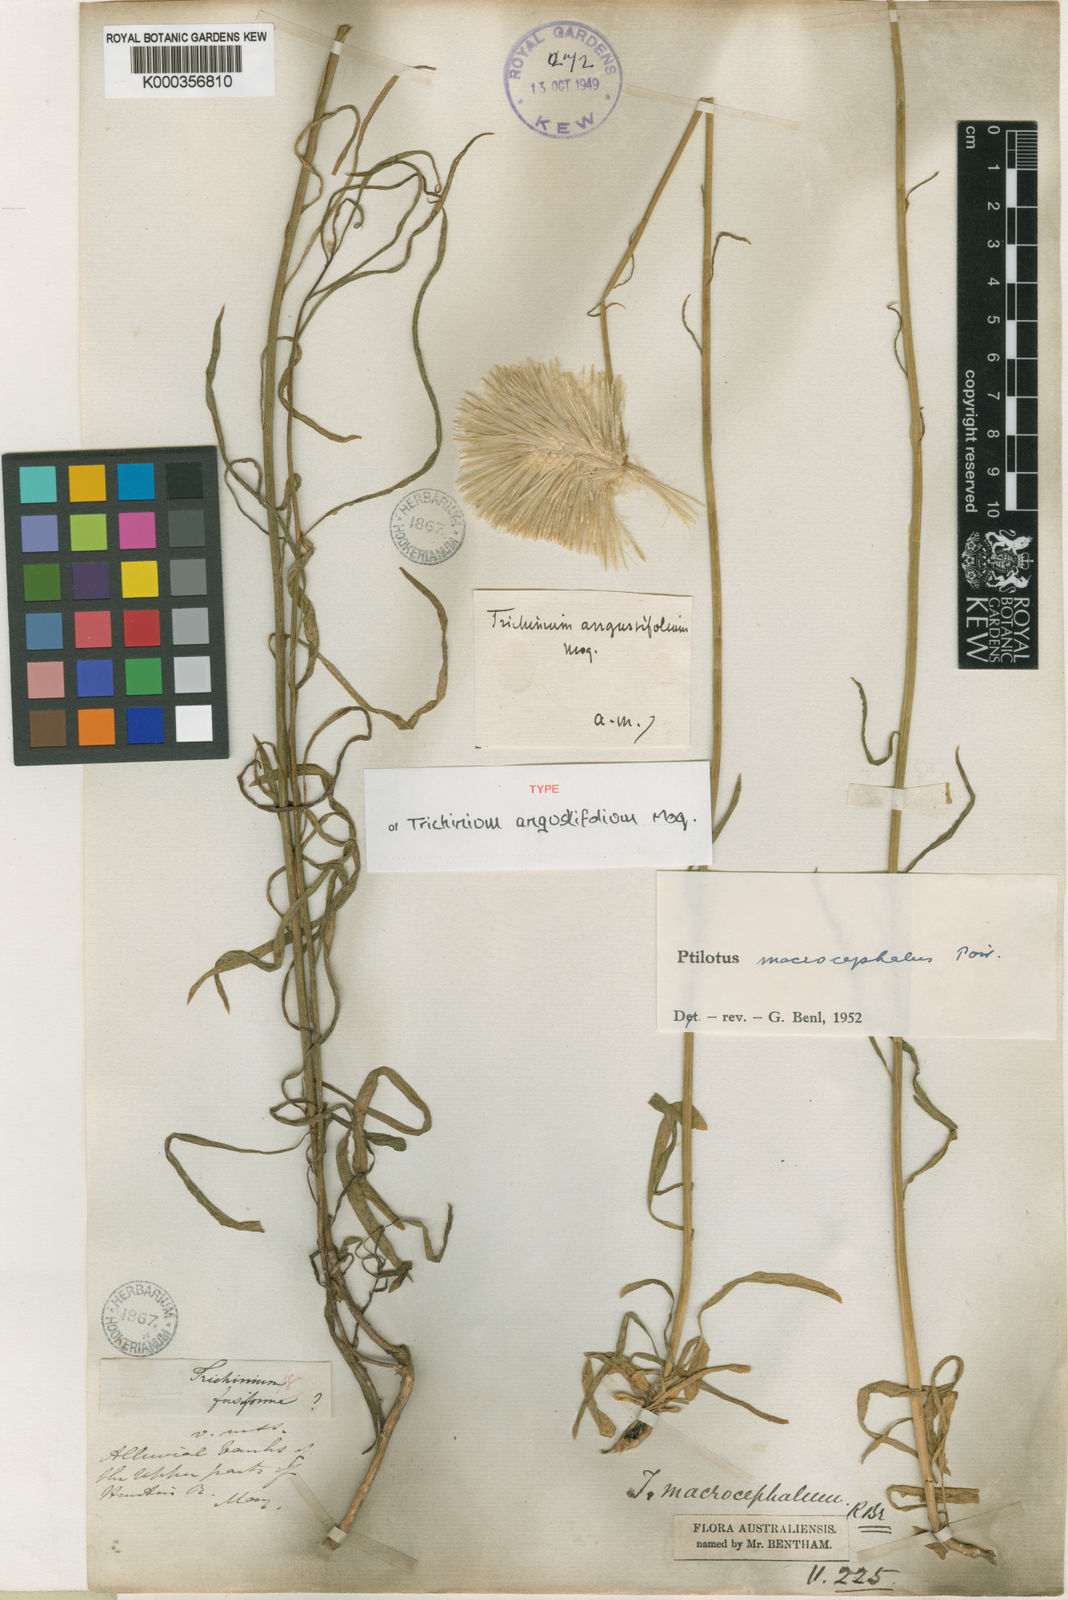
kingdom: Plantae
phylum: Tracheophyta
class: Magnoliopsida
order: Caryophyllales
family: Amaranthaceae
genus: Ptilotus
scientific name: Ptilotus macrocephalus
